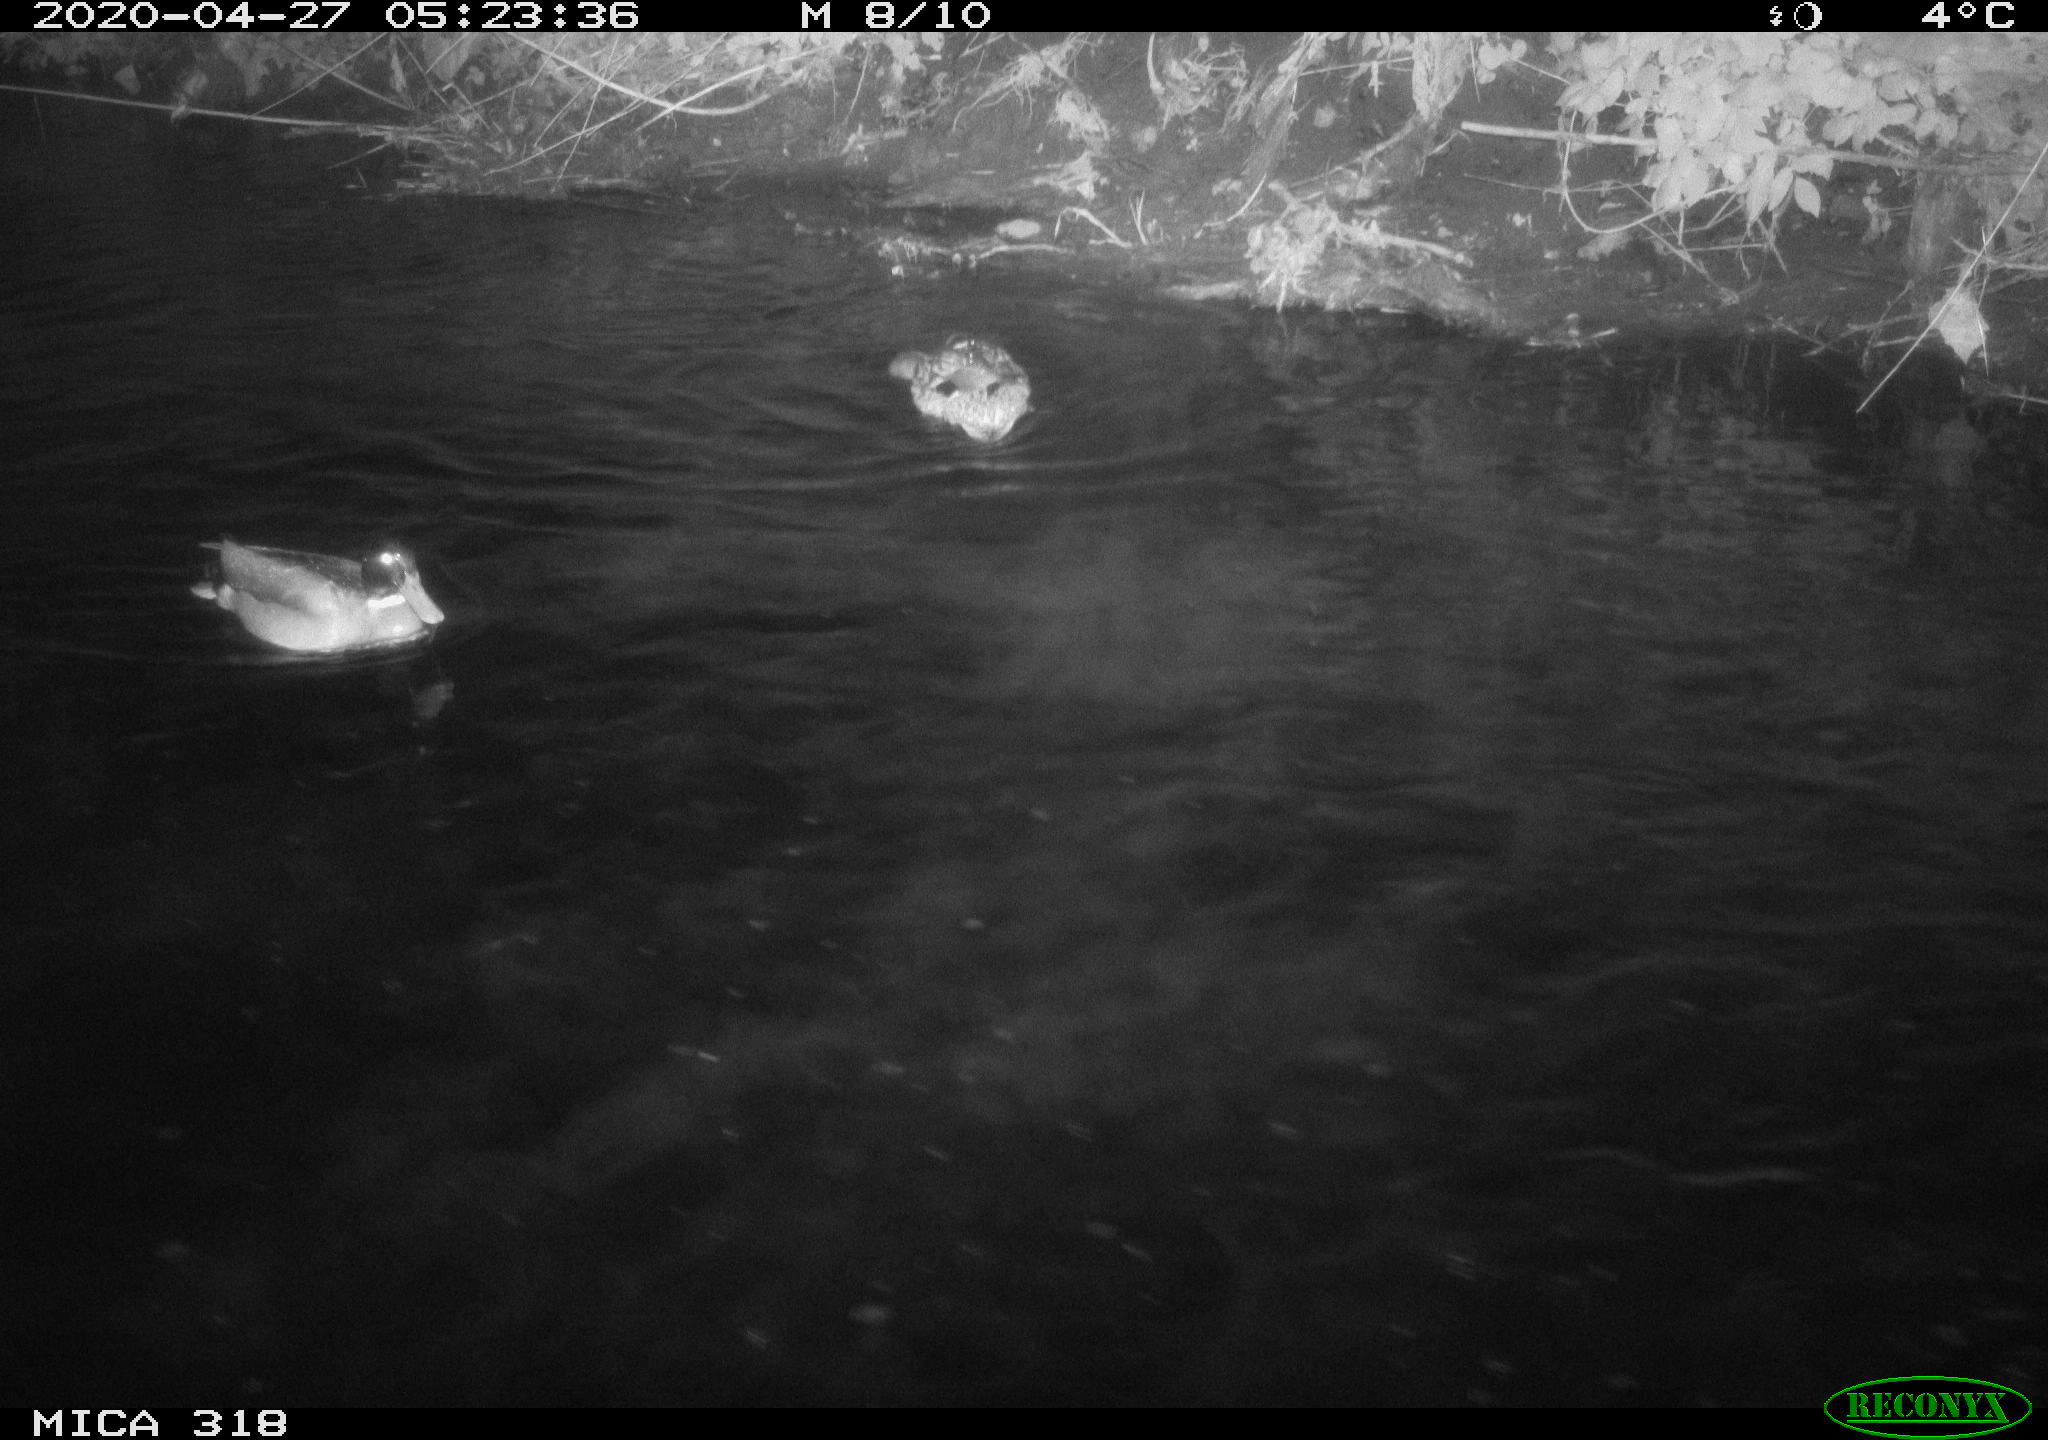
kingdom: Animalia
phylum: Chordata
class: Aves
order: Anseriformes
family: Anatidae
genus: Anas
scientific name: Anas platyrhynchos
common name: Mallard
